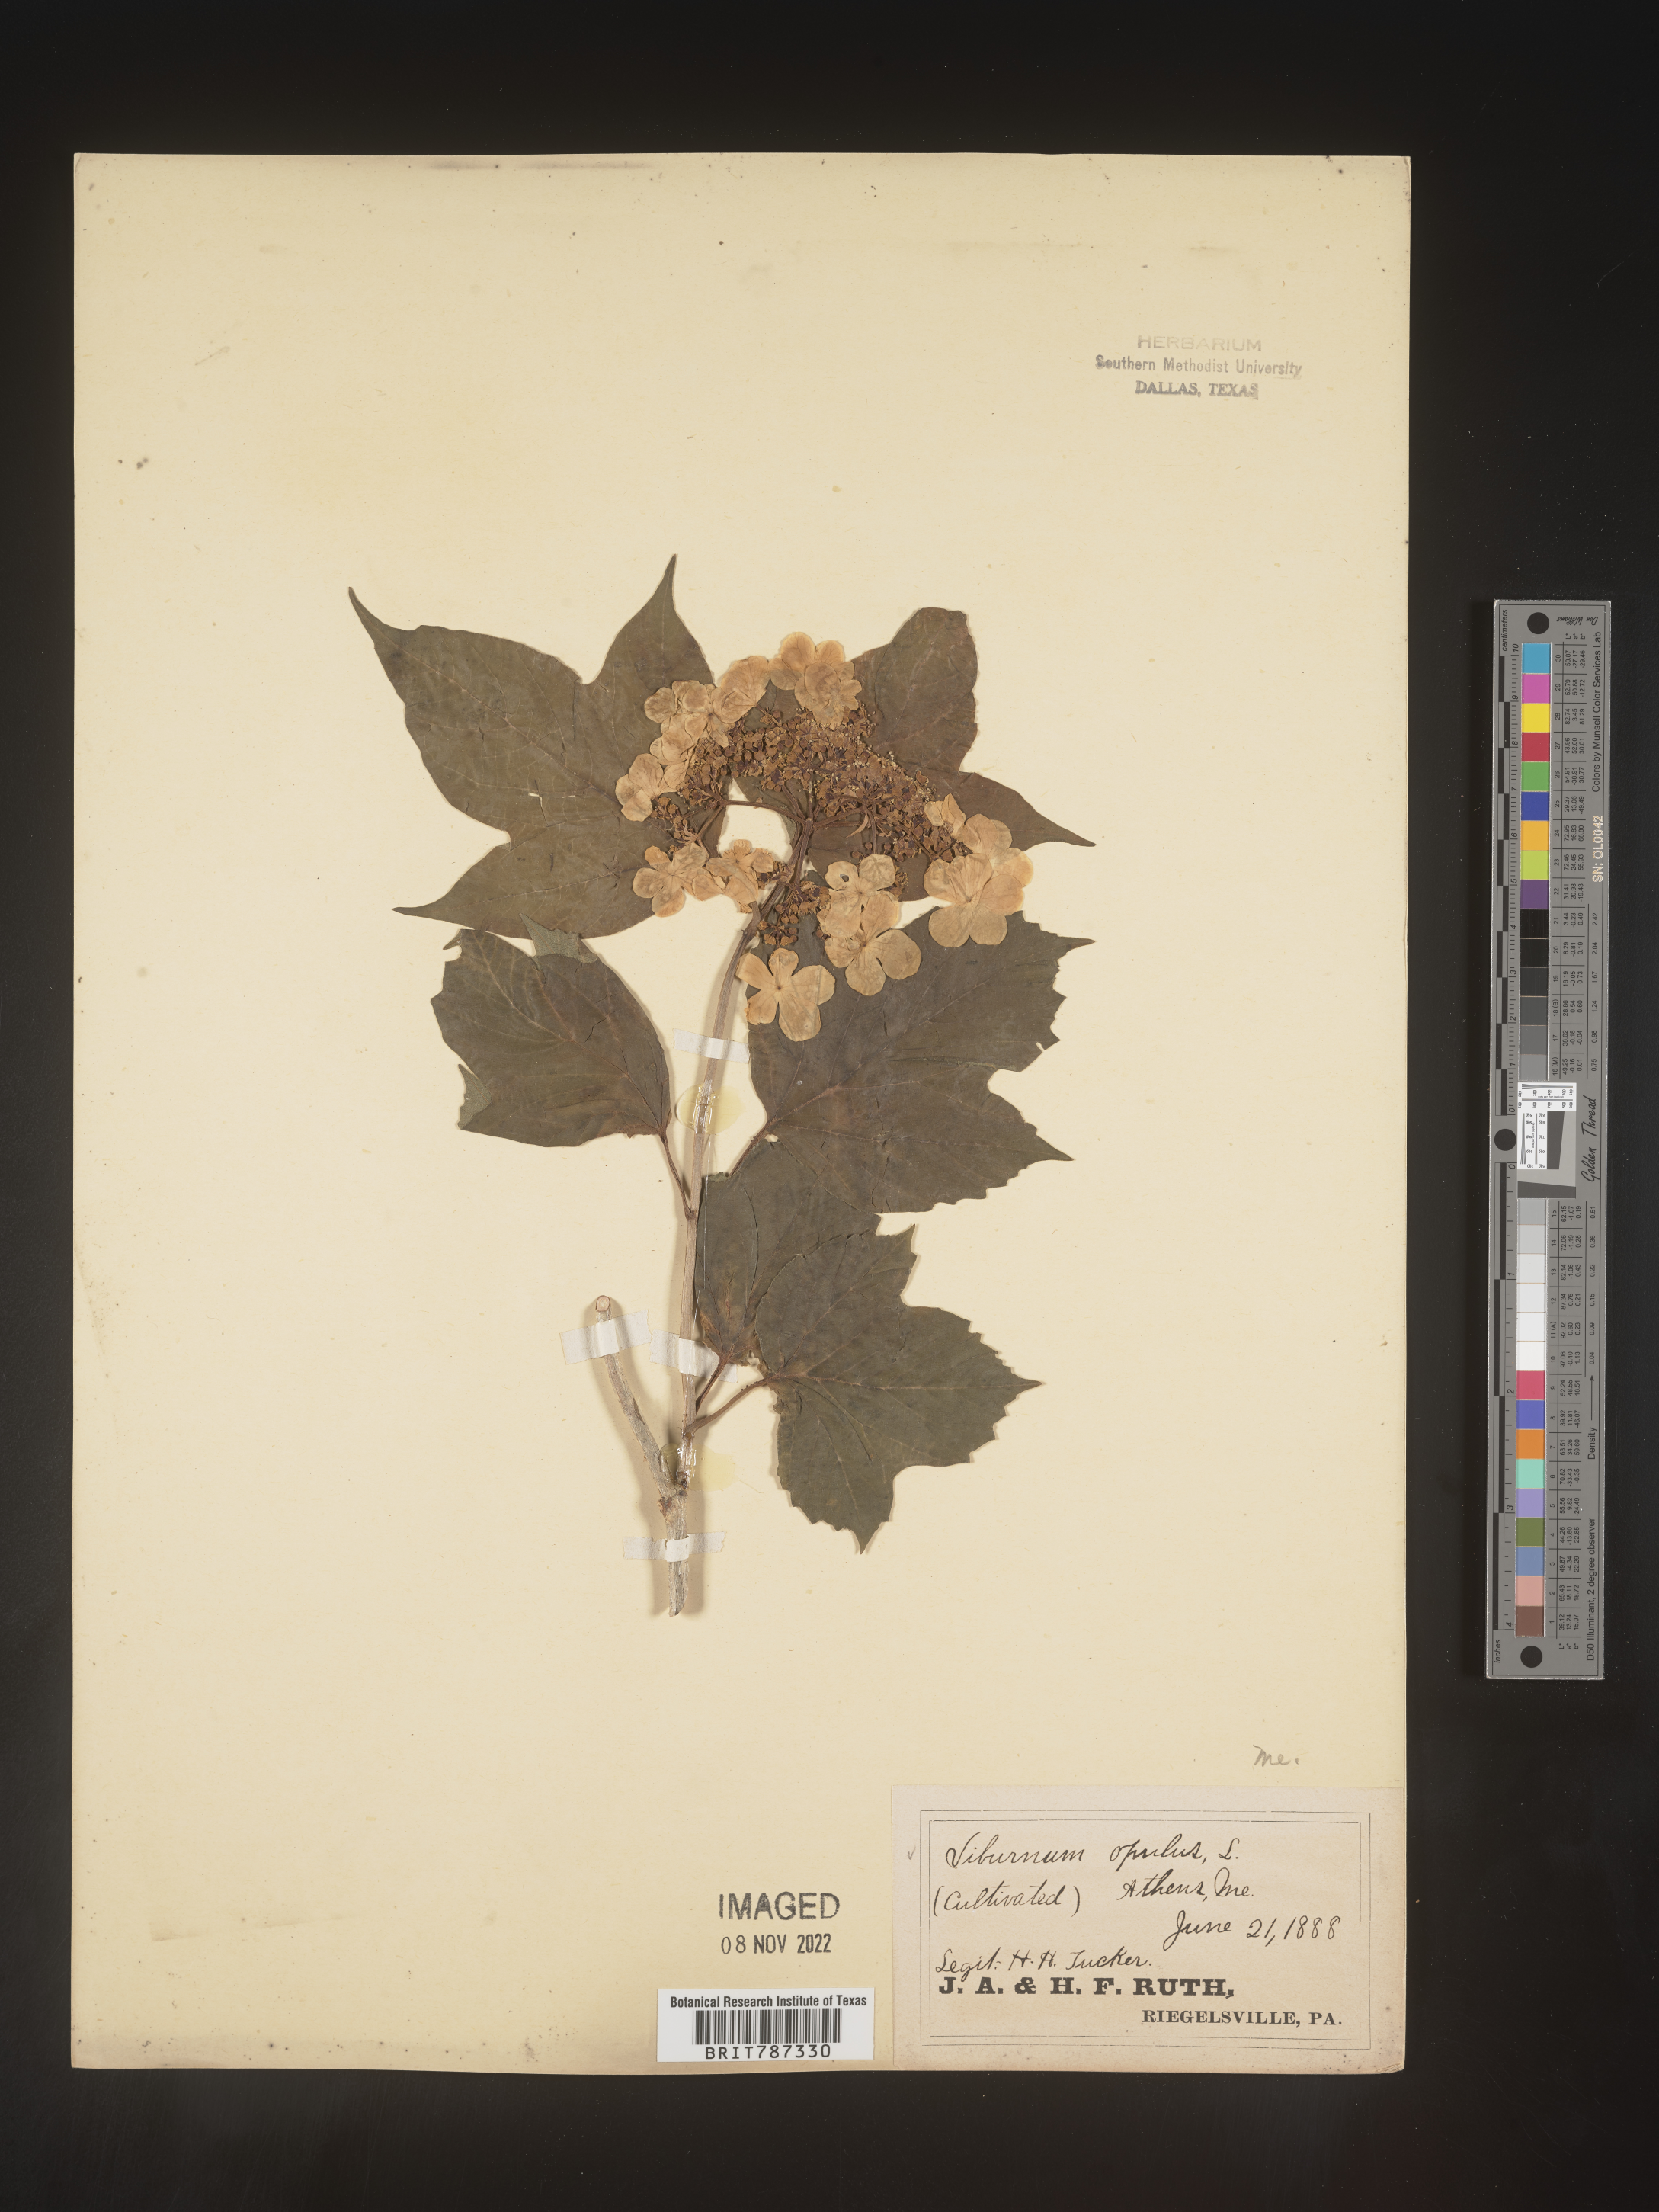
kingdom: Plantae
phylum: Tracheophyta
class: Magnoliopsida
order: Dipsacales
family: Viburnaceae
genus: Viburnum
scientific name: Viburnum
